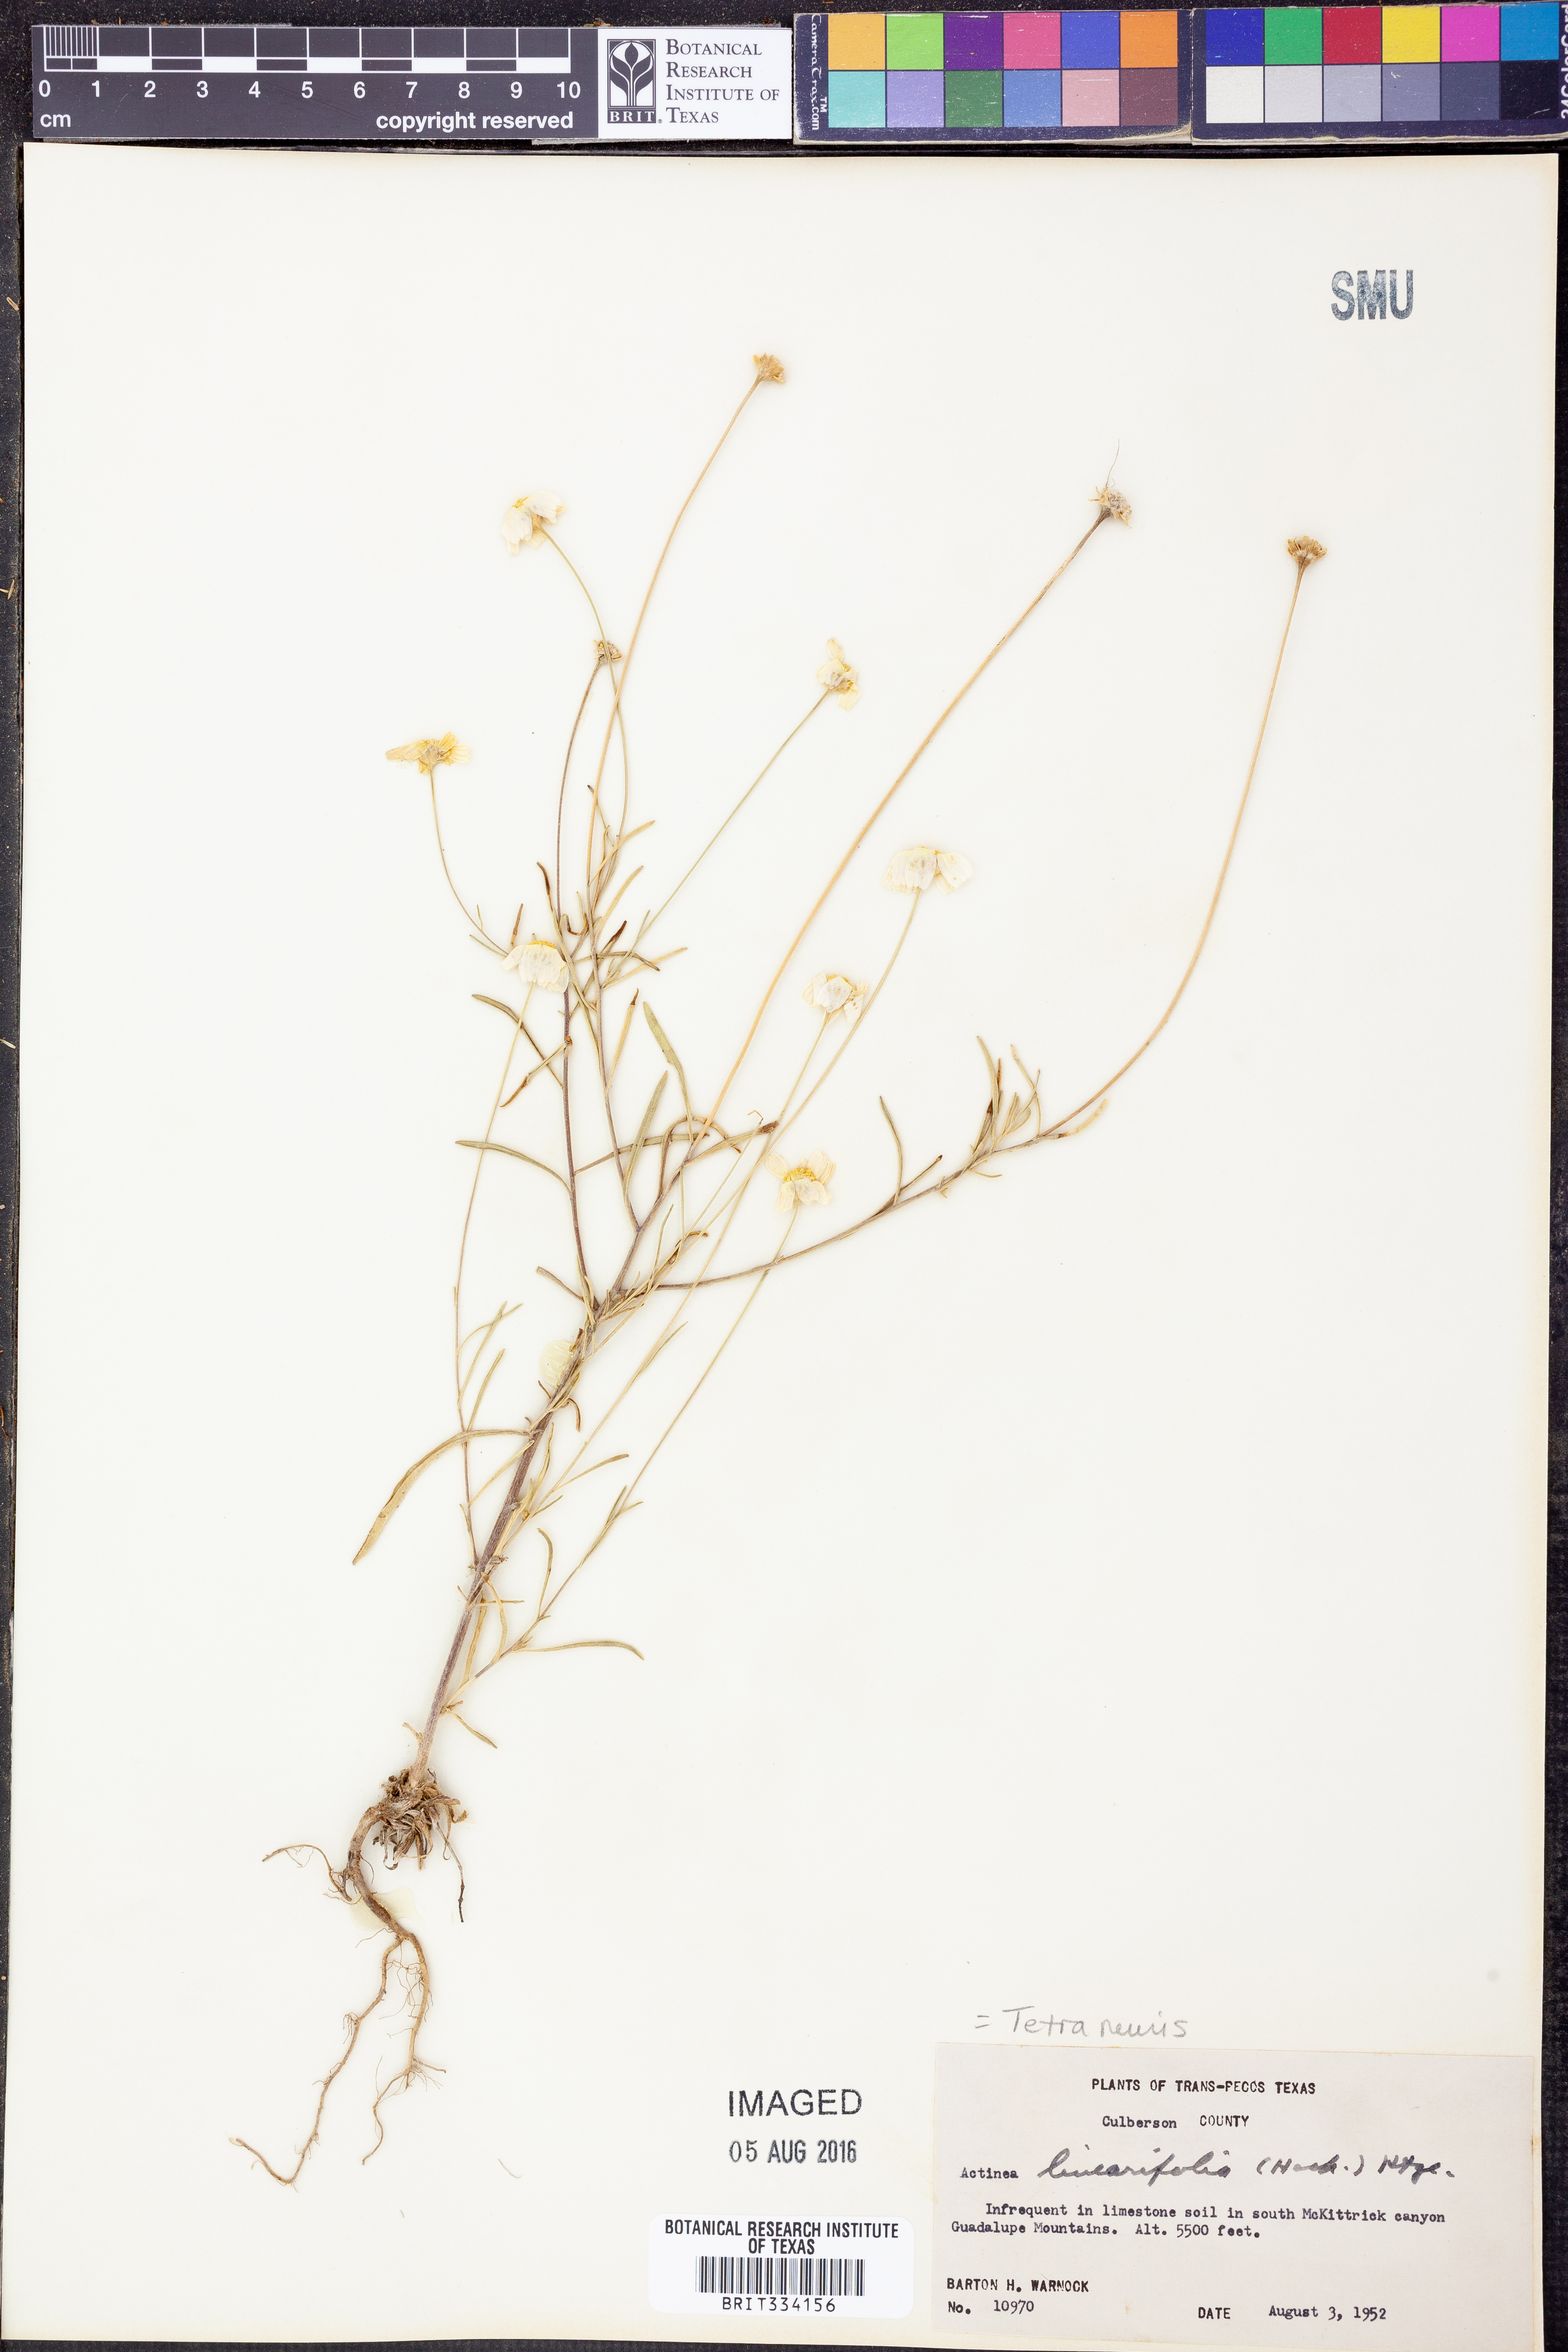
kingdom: Plantae
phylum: Tracheophyta
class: Magnoliopsida
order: Asterales
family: Asteraceae
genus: Tetraneuris
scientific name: Tetraneuris linearifolia
